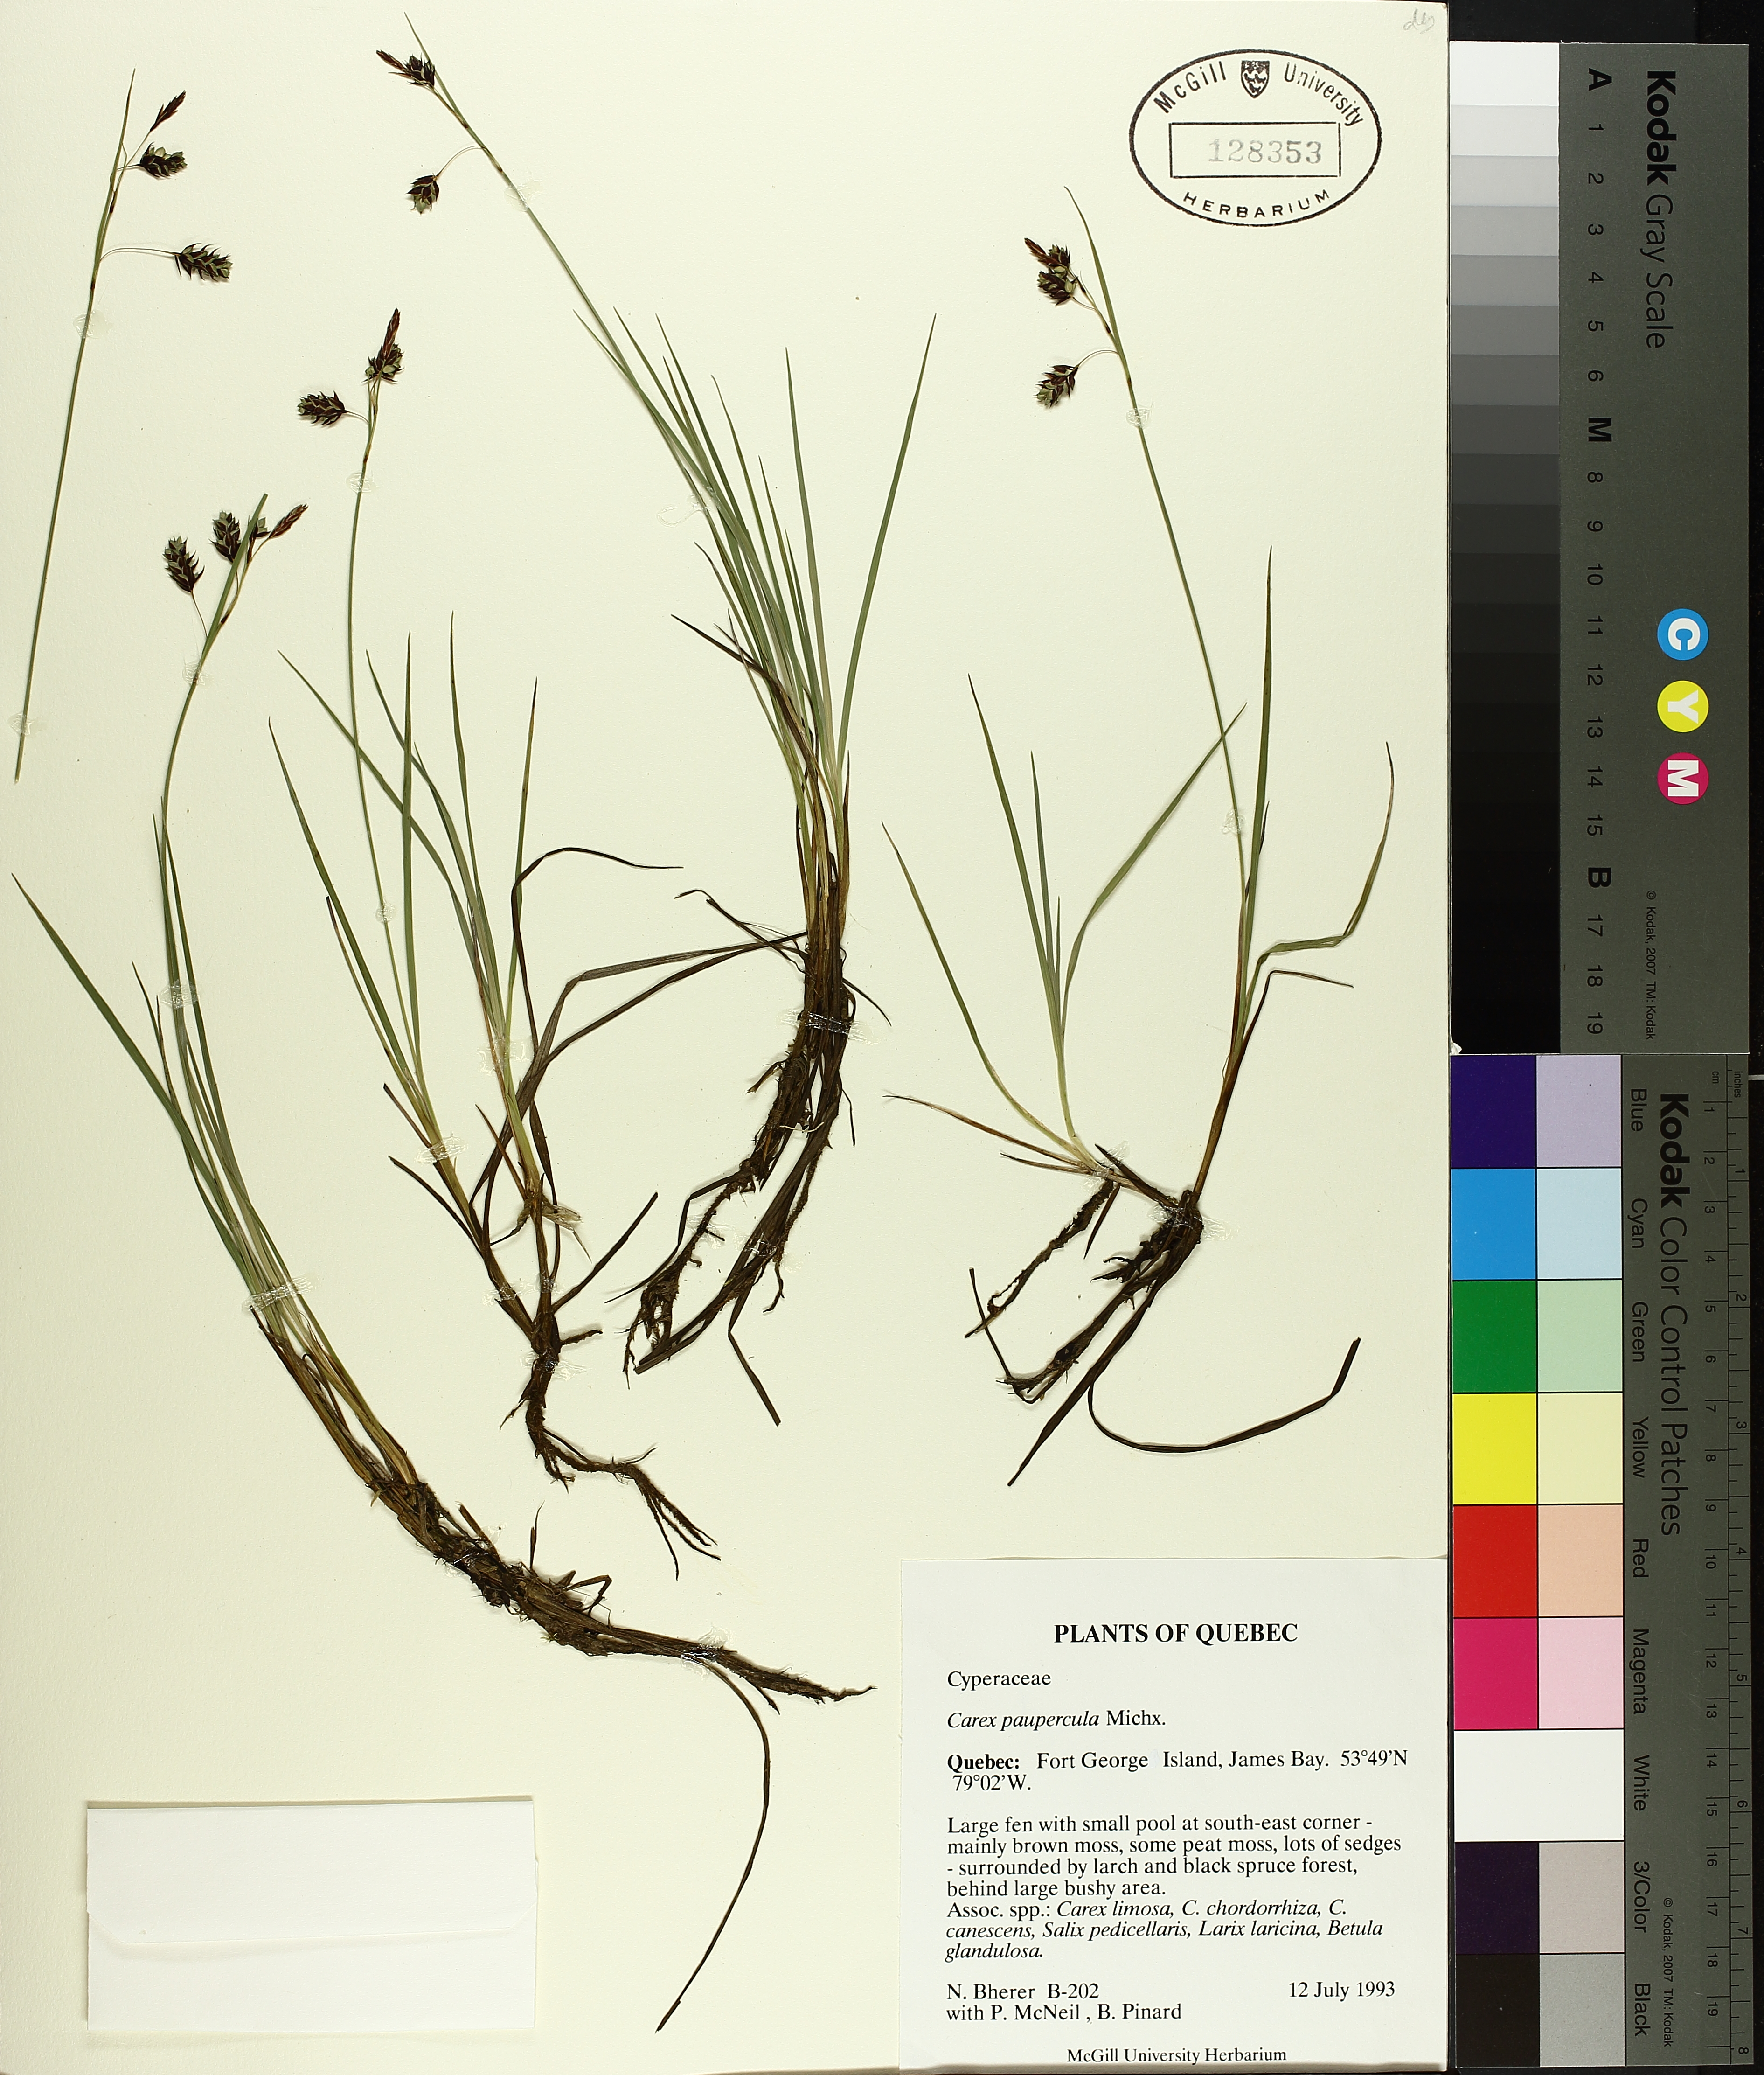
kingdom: Plantae
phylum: Tracheophyta
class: Liliopsida
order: Poales
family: Cyperaceae
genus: Carex
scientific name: Carex magellanica
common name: Bog sedge
